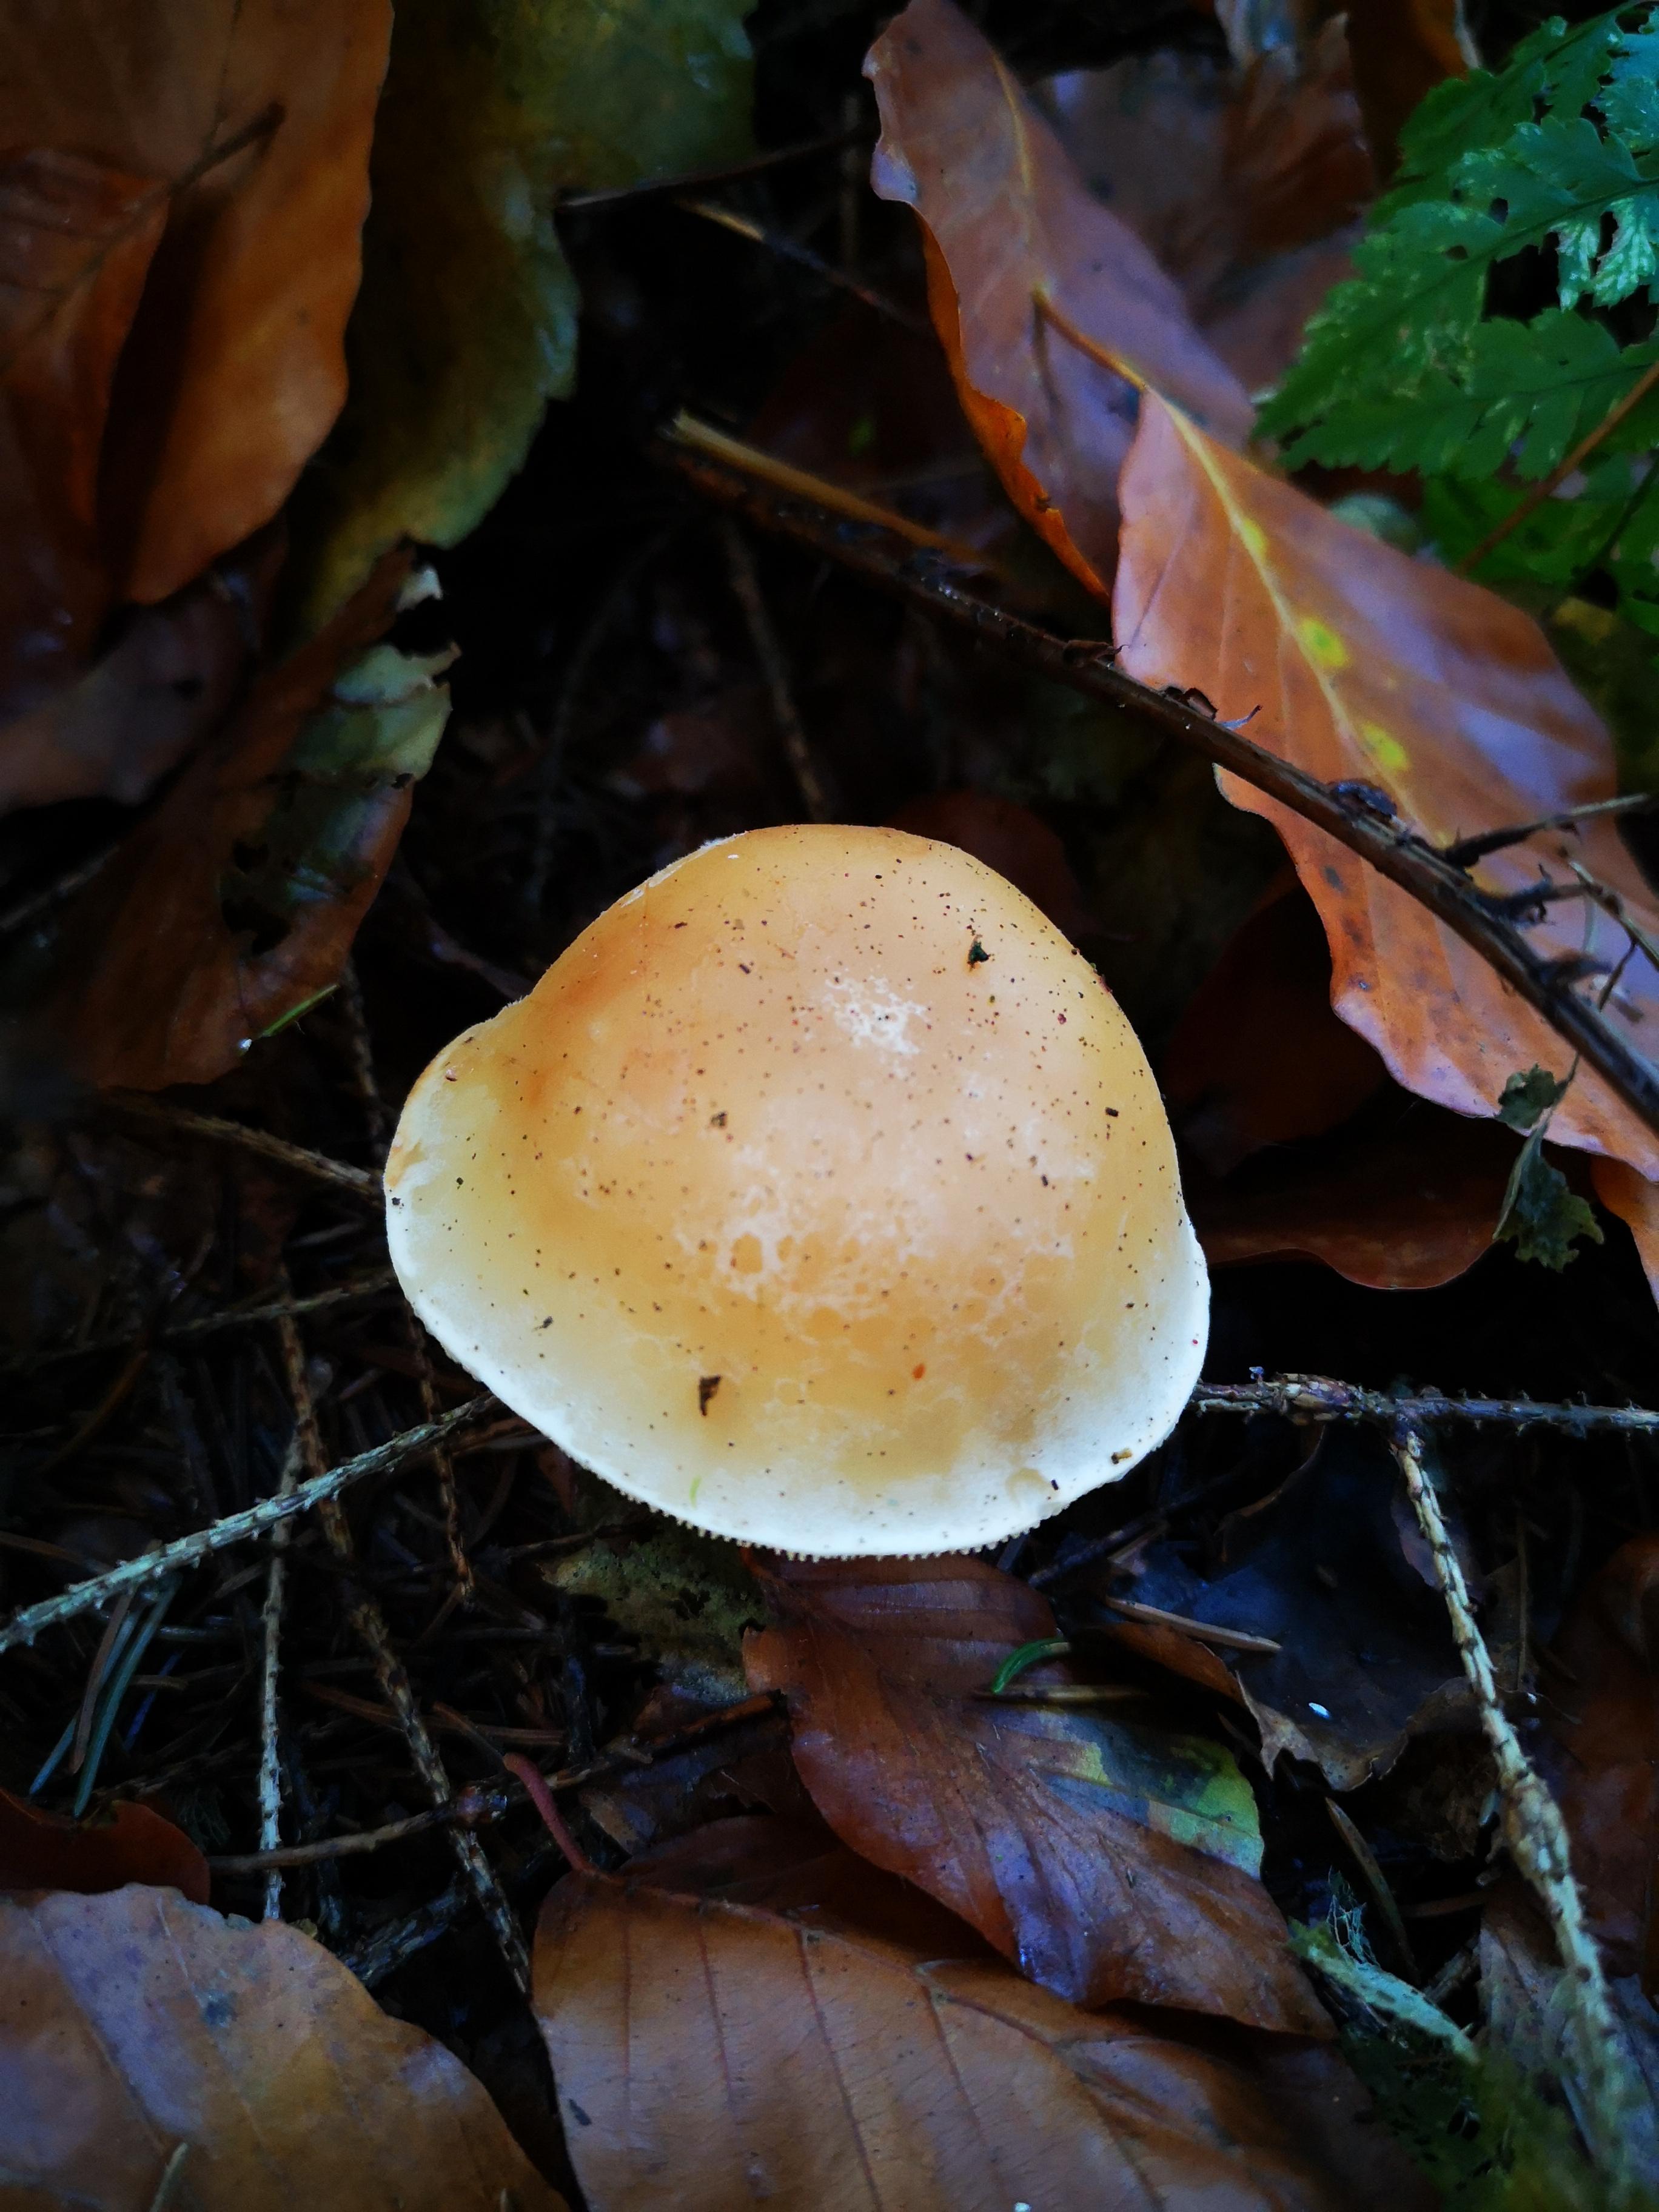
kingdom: Fungi
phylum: Basidiomycota
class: Agaricomycetes
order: Agaricales
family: Strophariaceae
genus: Hypholoma
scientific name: Hypholoma capnoides
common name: gran-svovlhat
